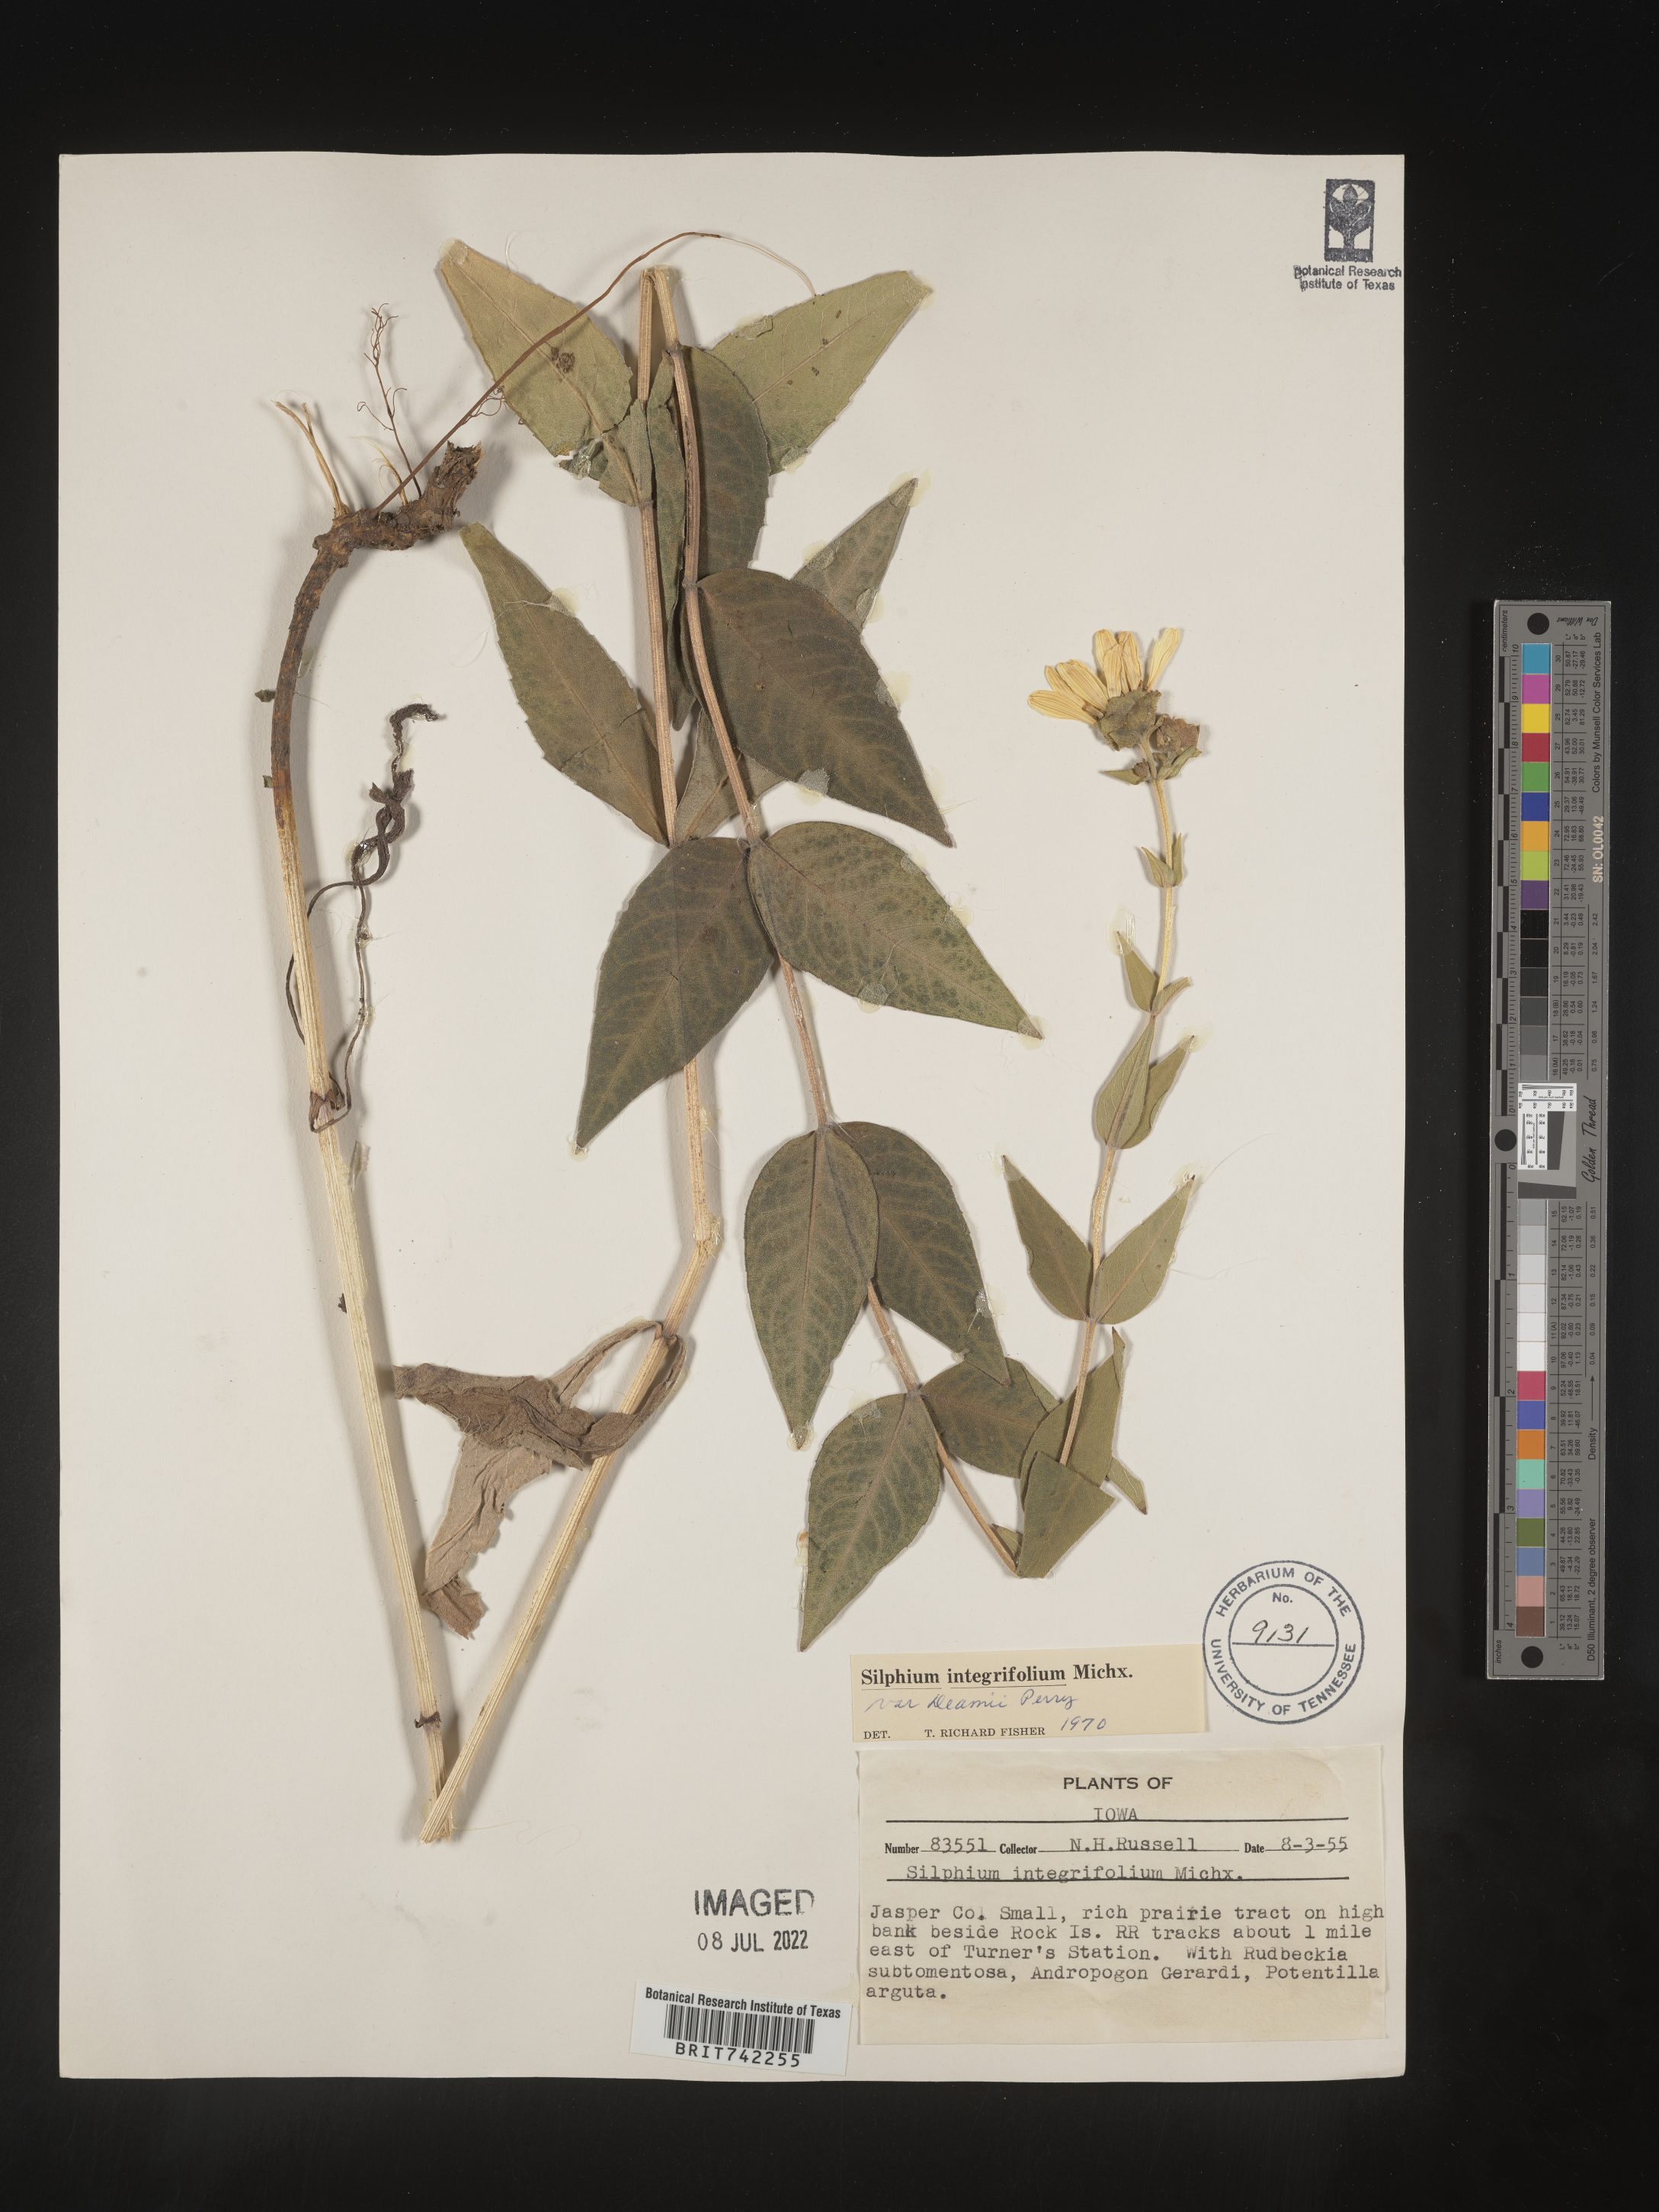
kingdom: Plantae
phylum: Tracheophyta
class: Magnoliopsida
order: Asterales
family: Asteraceae
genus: Silphium
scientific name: Silphium integrifolium
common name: Whole-leaf rosinweed
